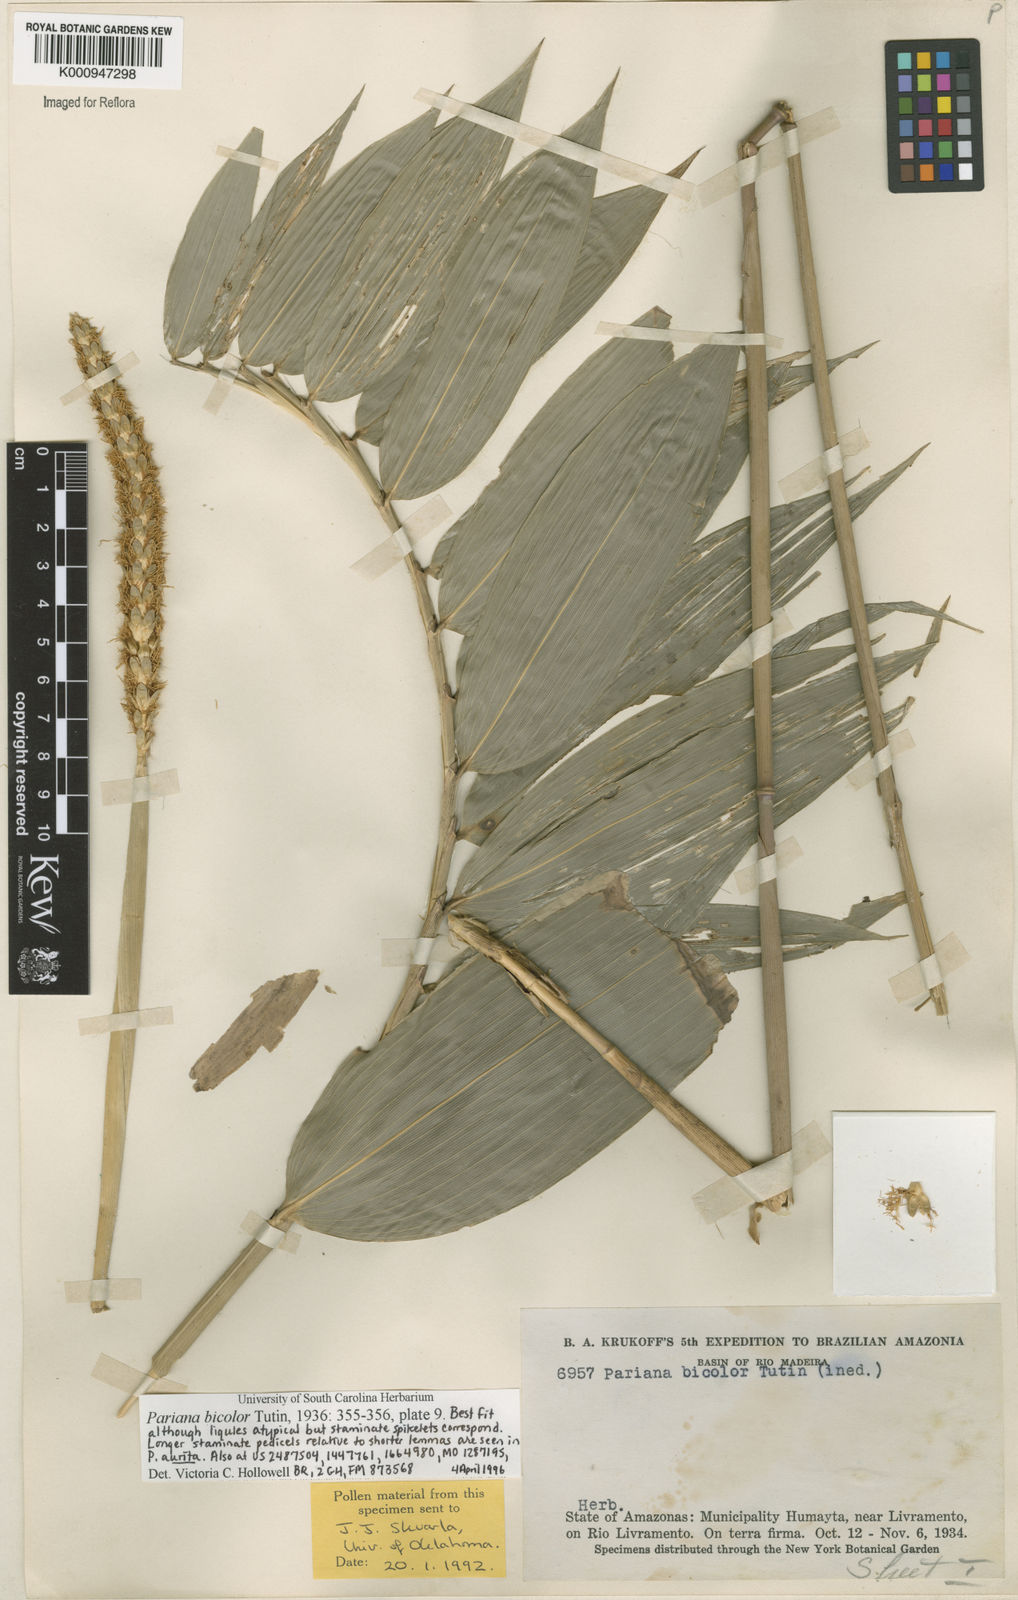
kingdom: Plantae
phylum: Tracheophyta
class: Liliopsida
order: Poales
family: Poaceae
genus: Pariana
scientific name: Pariana bicolor
